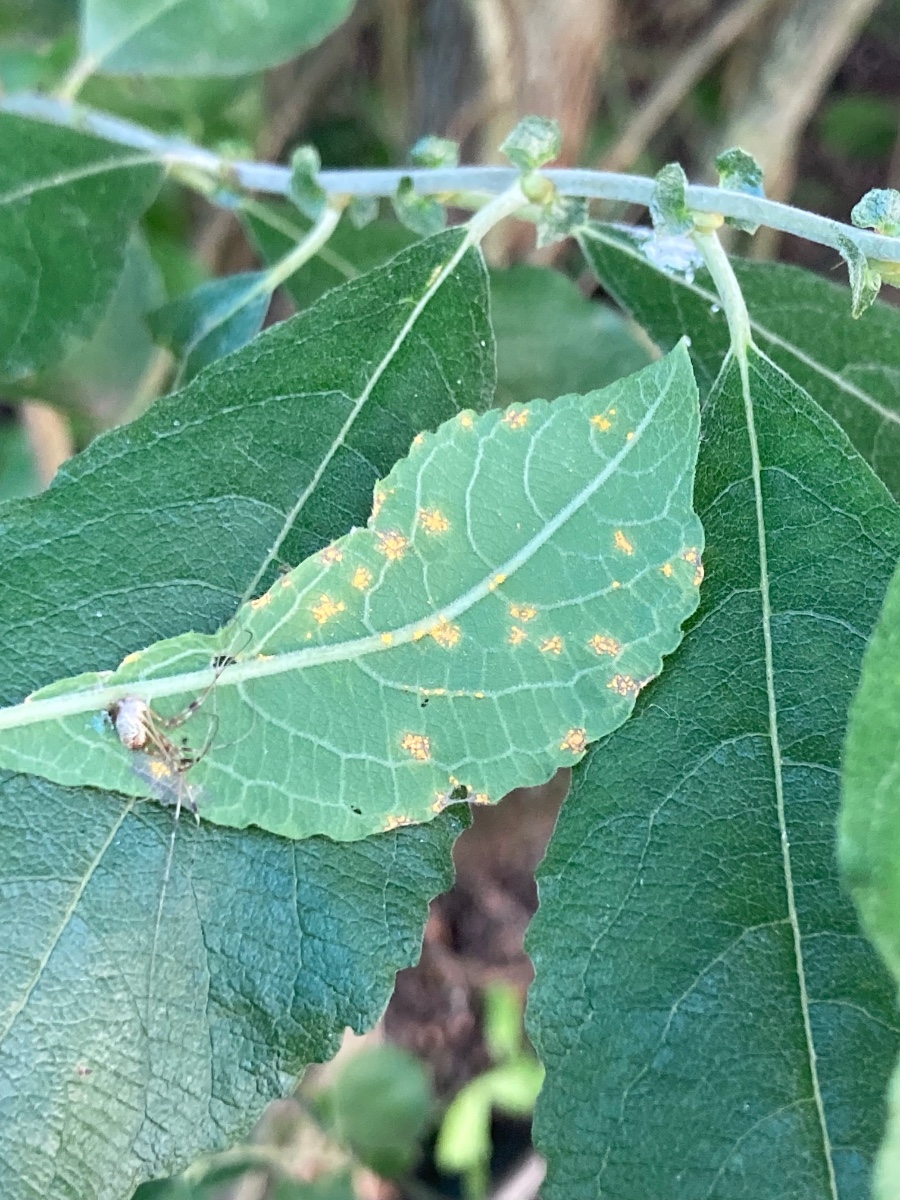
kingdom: Fungi
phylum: Basidiomycota
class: Pucciniomycetes
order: Pucciniales
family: Melampsoraceae
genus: Melampsora
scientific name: Melampsora epitea
